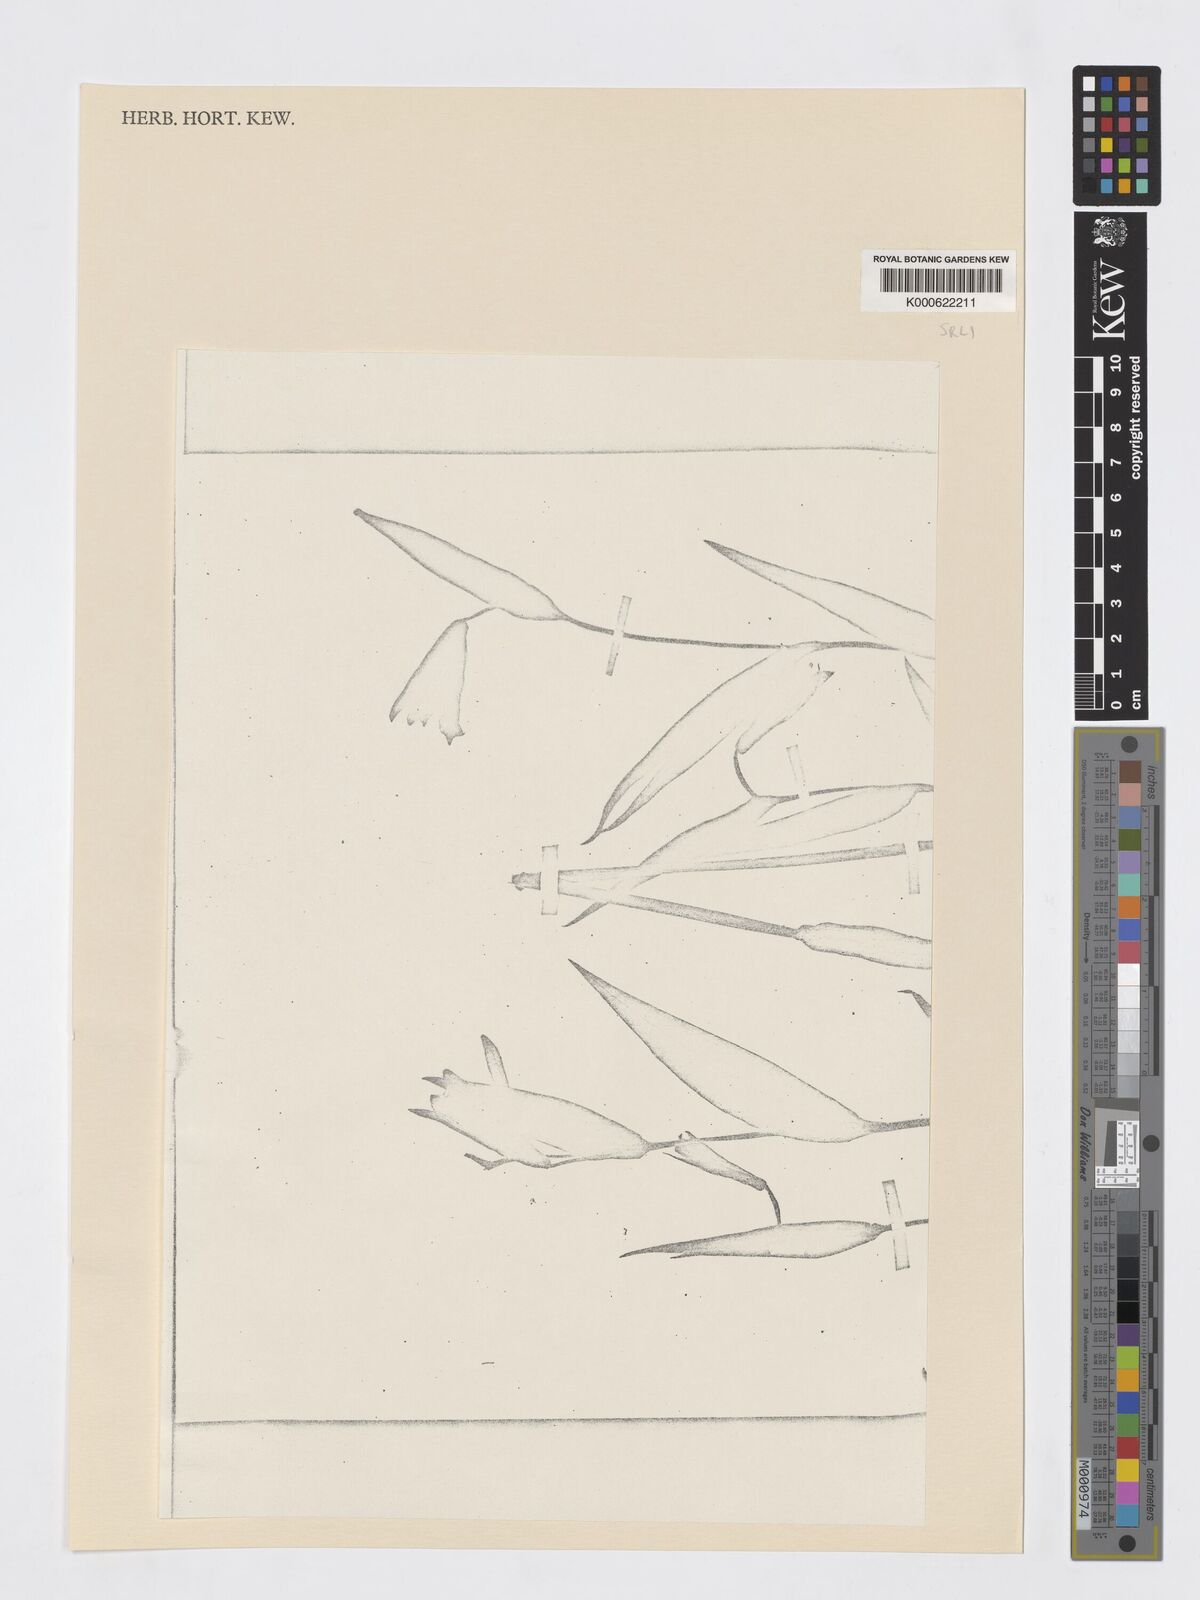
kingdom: Plantae
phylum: Tracheophyta
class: Liliopsida
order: Asparagales
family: Orchidaceae
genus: Cleistes
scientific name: Cleistes ionoglossa
